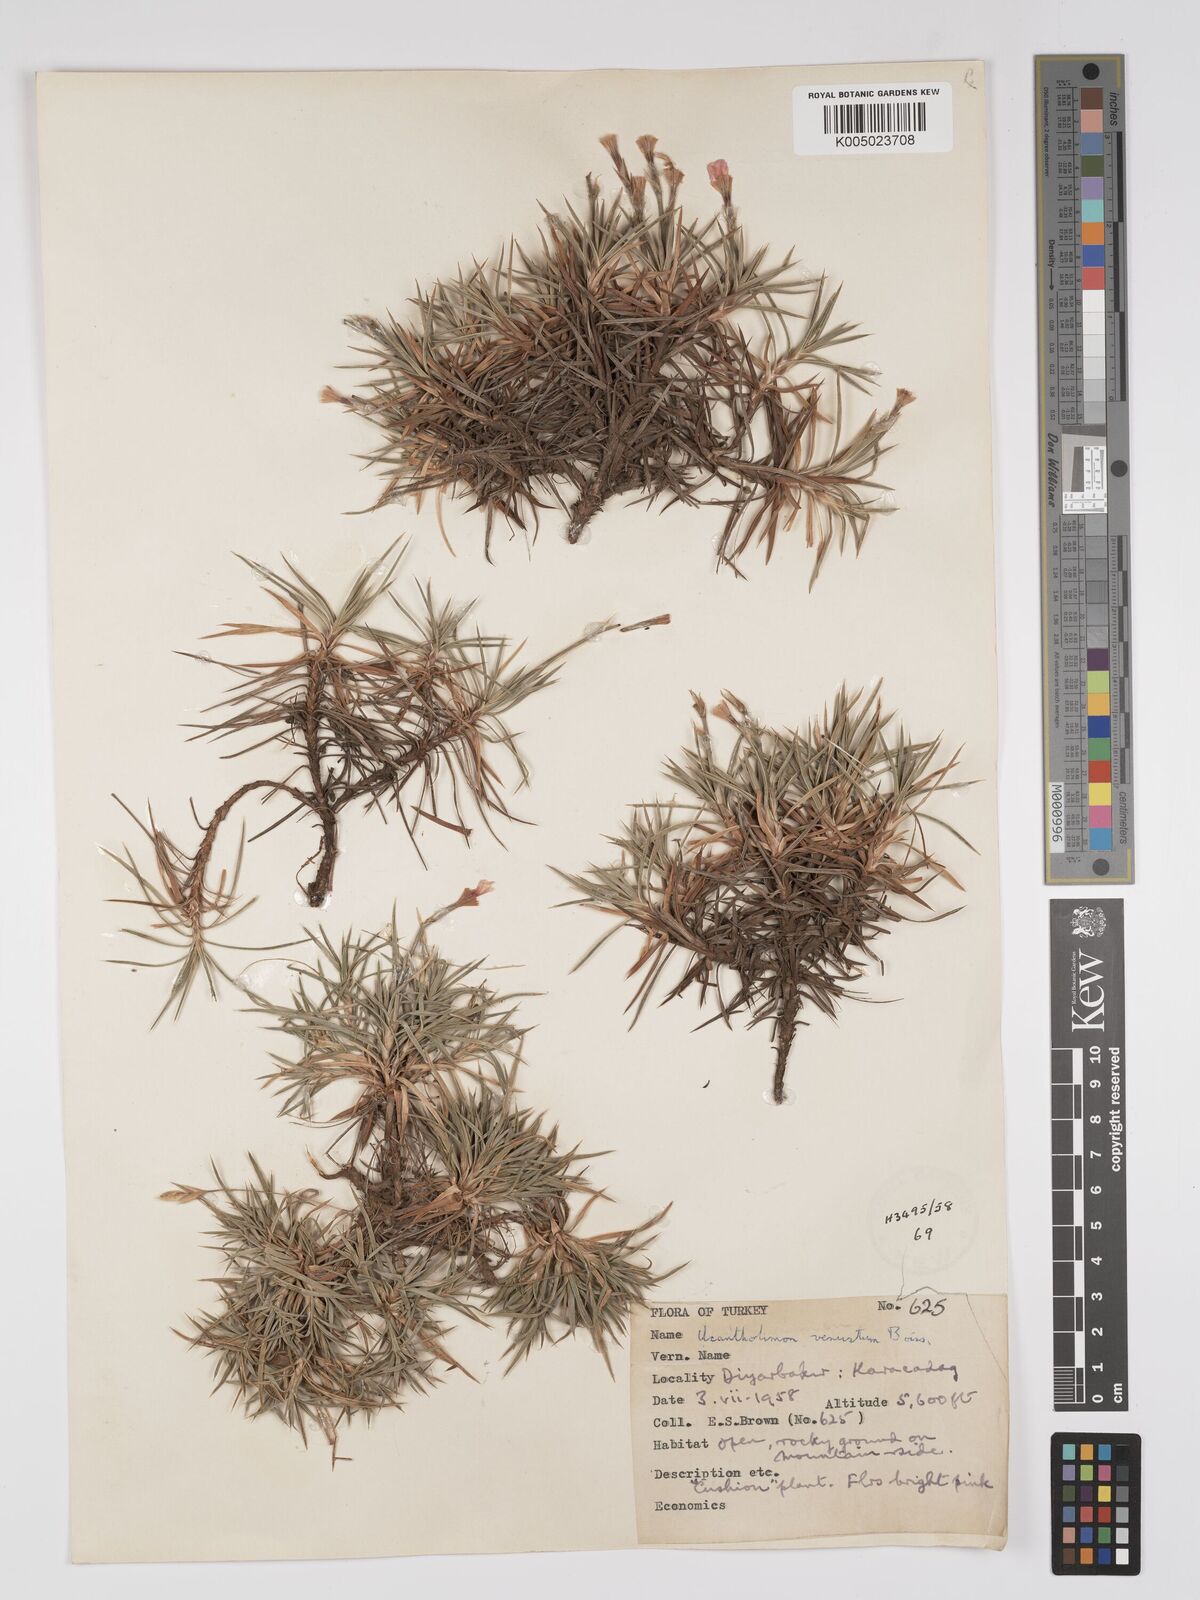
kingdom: Plantae
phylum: Tracheophyta
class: Magnoliopsida
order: Caryophyllales
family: Plumbaginaceae
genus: Acantholimon
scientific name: Acantholimon venustum
